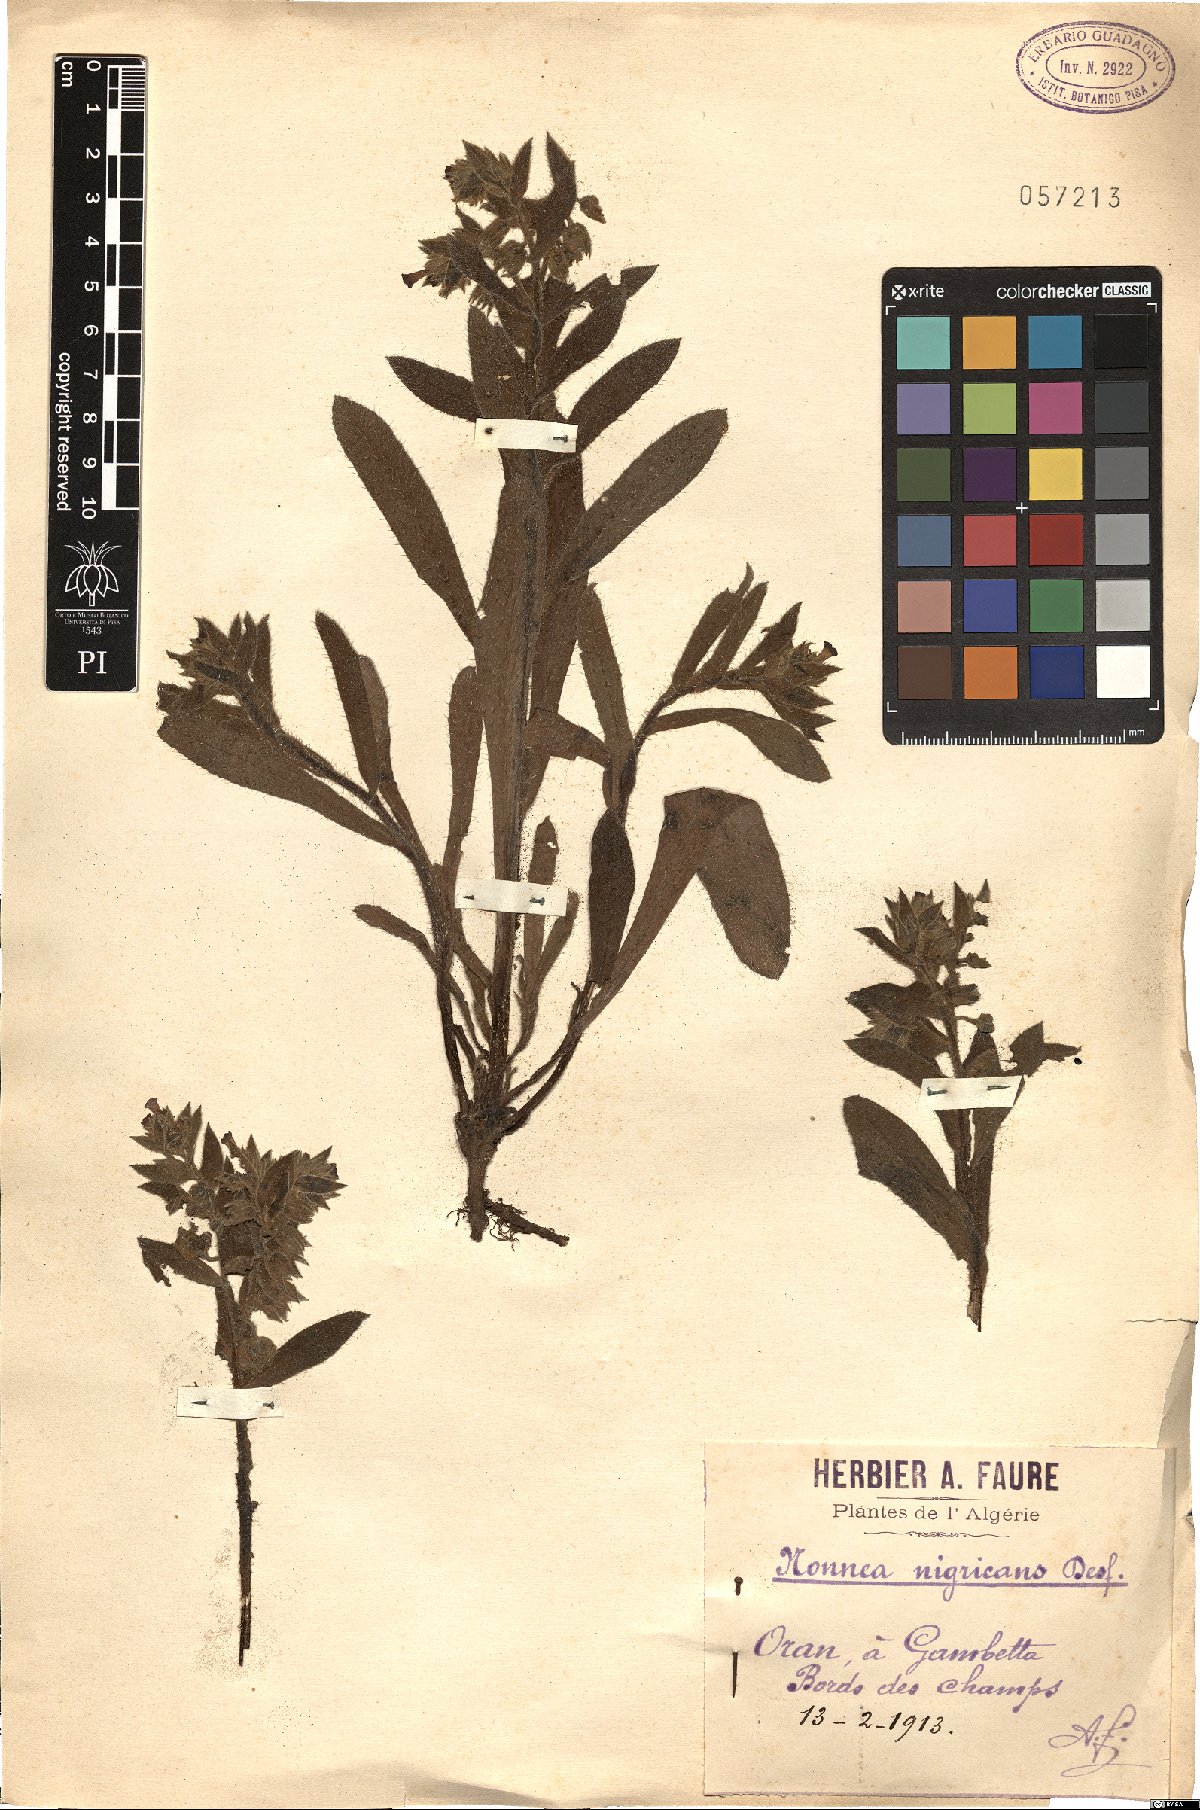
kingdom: Plantae
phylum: Tracheophyta
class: Magnoliopsida
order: Boraginales
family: Boraginaceae
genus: Nonea
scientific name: Nonea vesicaria
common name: Red monkswort
